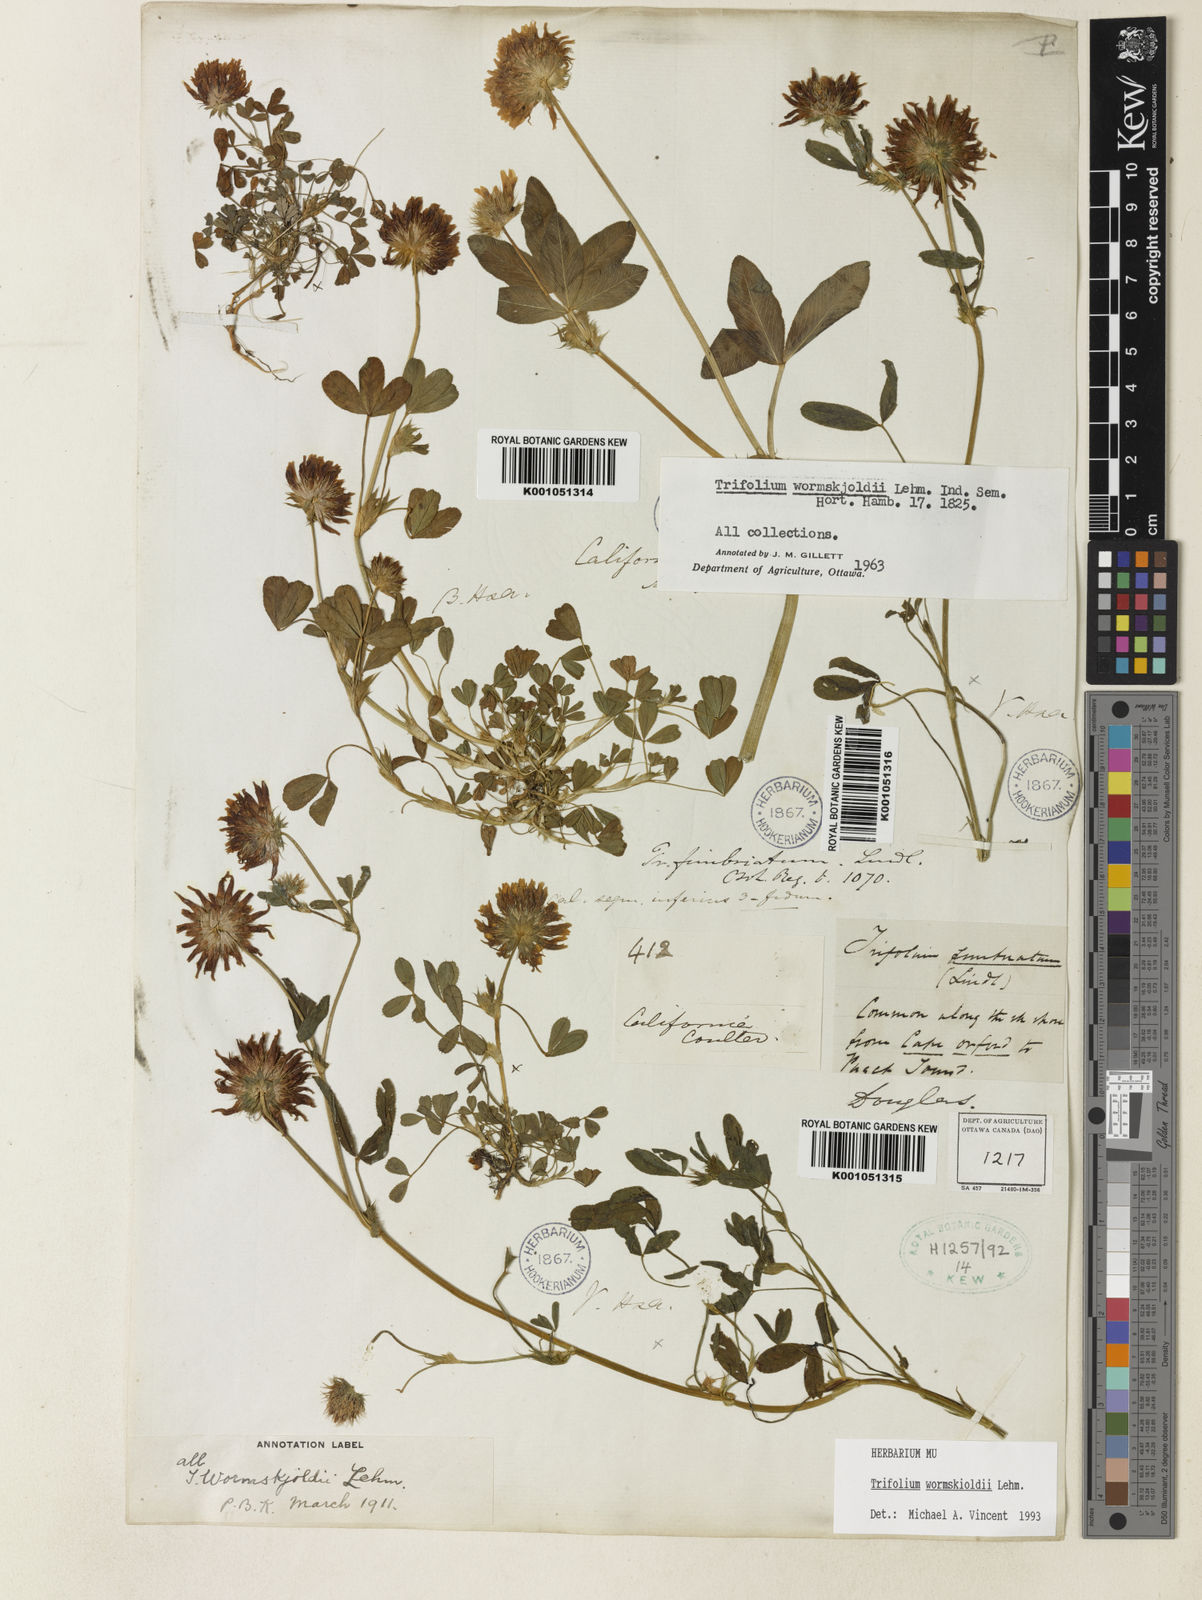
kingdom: Plantae
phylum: Tracheophyta
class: Magnoliopsida
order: Fabales
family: Fabaceae
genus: Trifolium
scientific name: Trifolium willdenovii
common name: Tomcat clover
